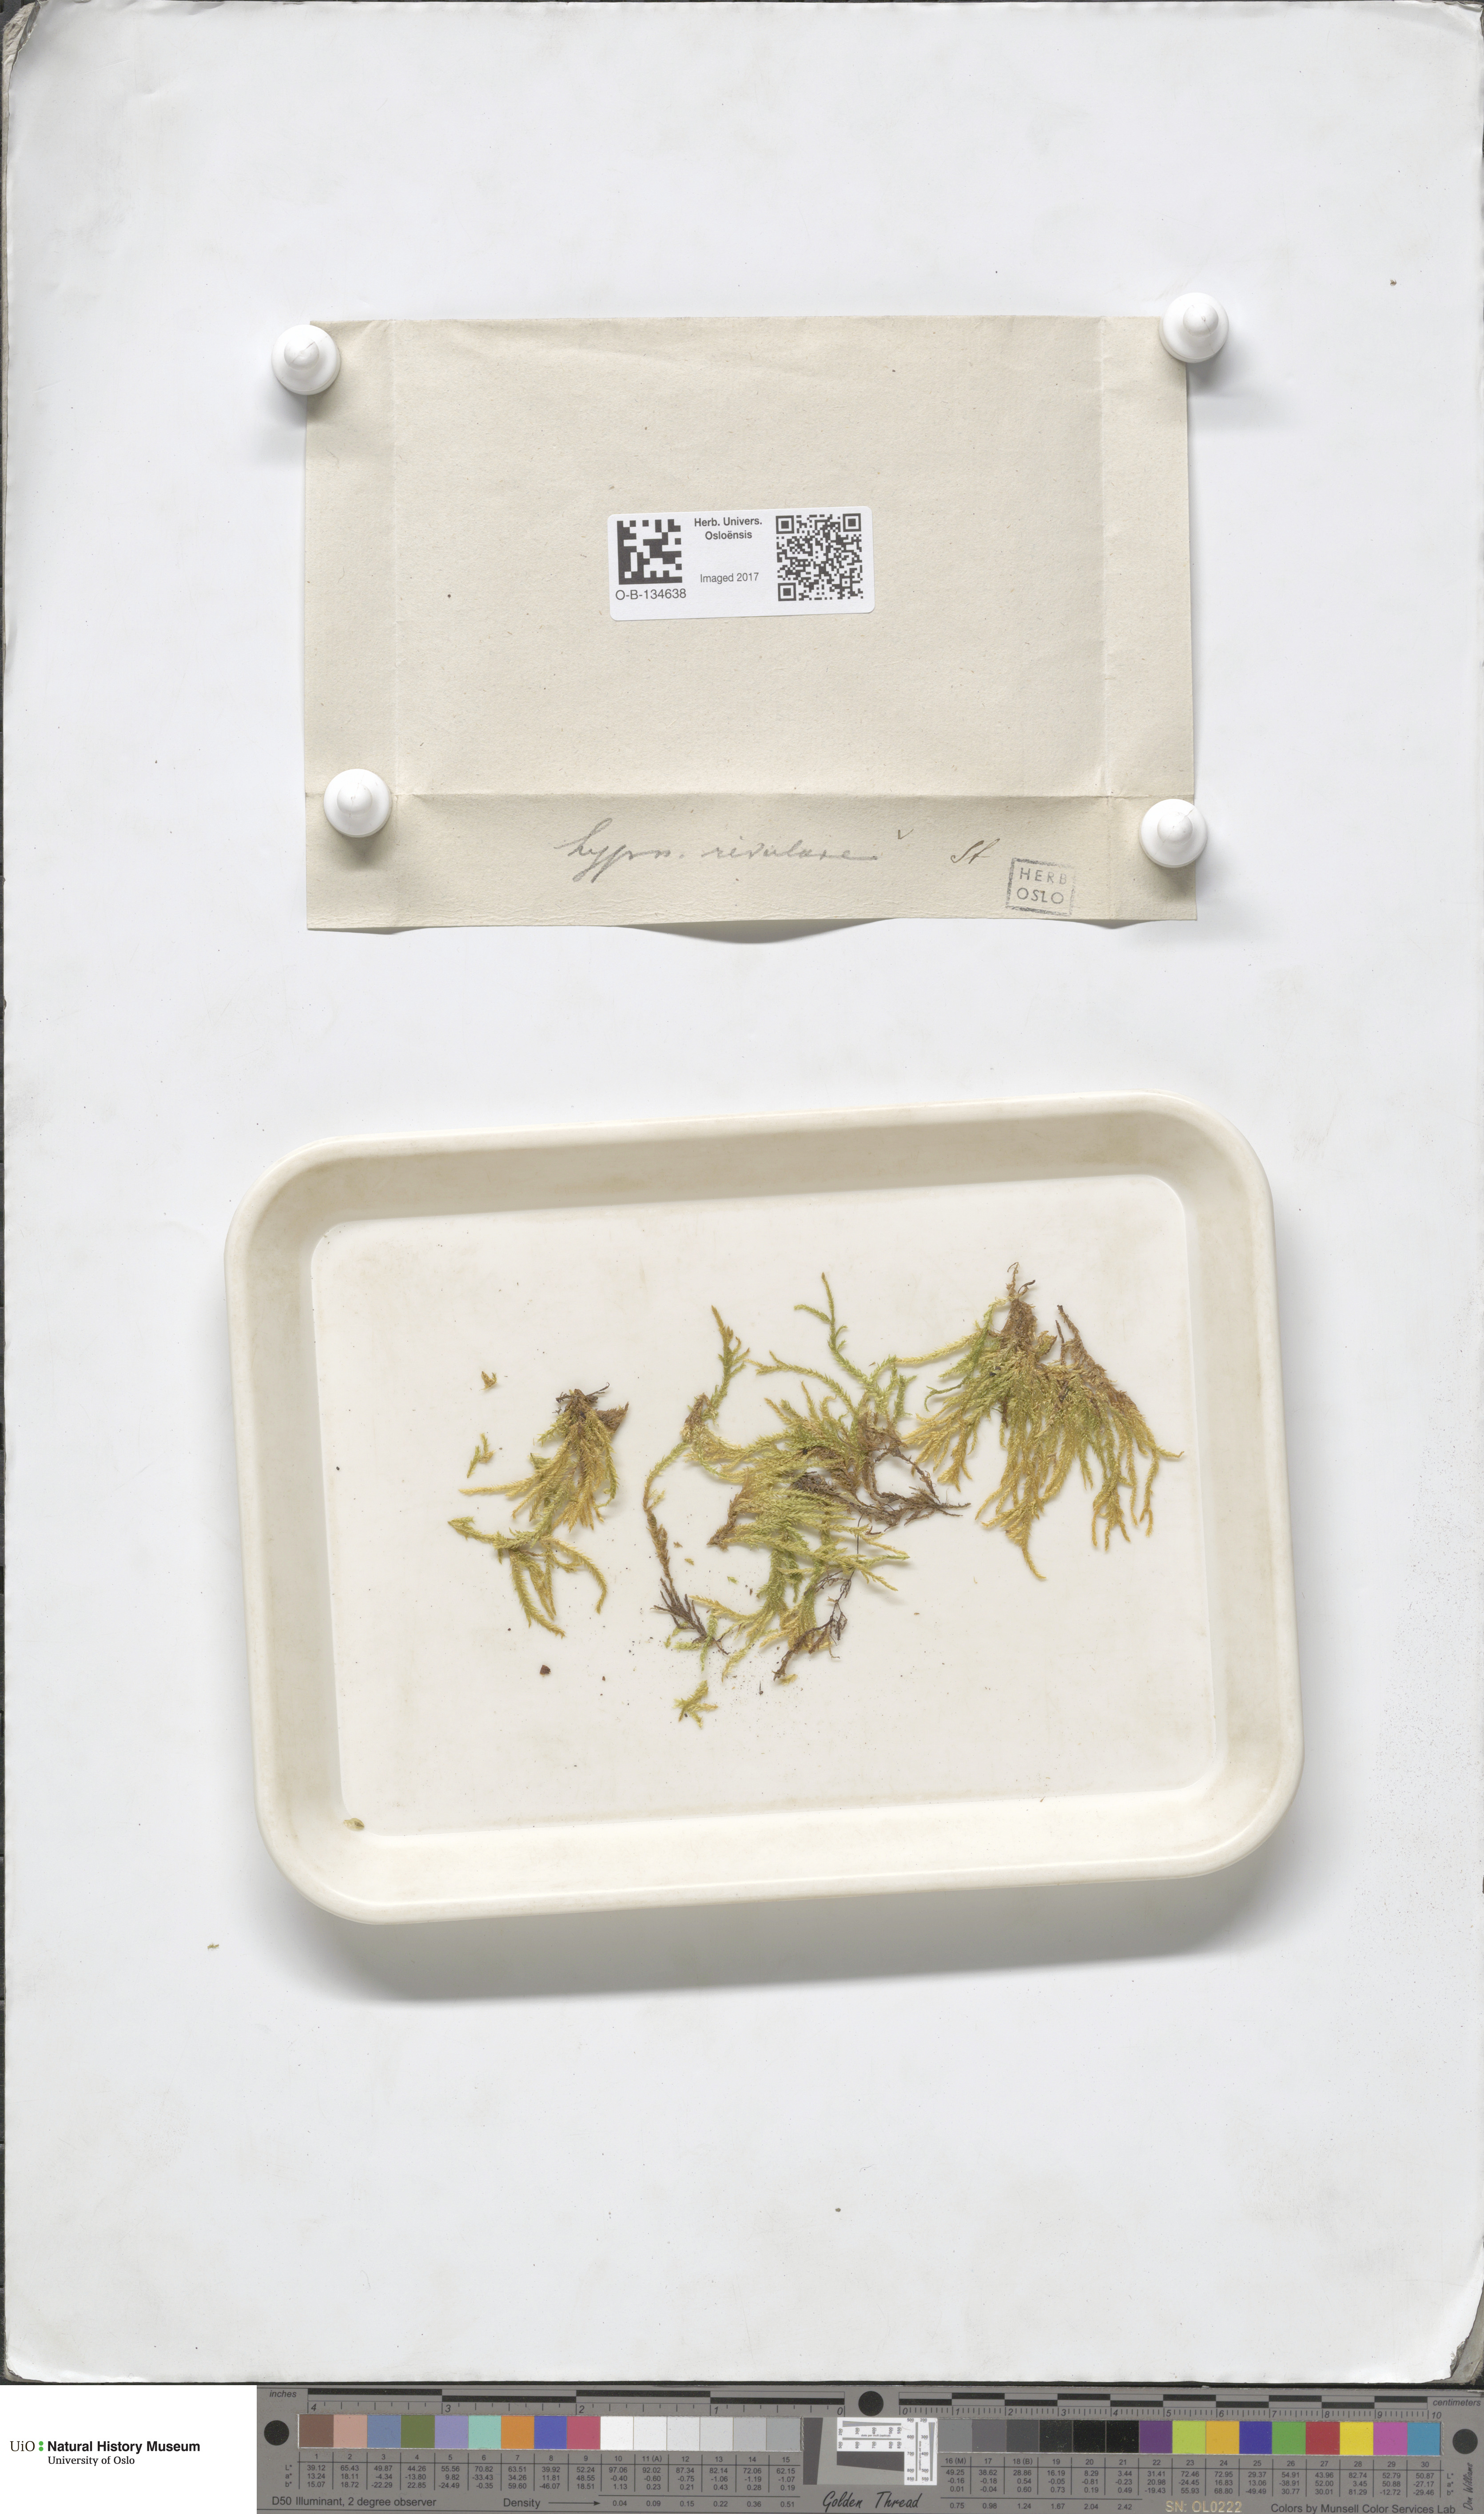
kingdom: Plantae
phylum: Bryophyta
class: Bryopsida
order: Hypnales
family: Brachytheciaceae
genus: Brachythecium
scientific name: Brachythecium rivulare
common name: River ragged moss
